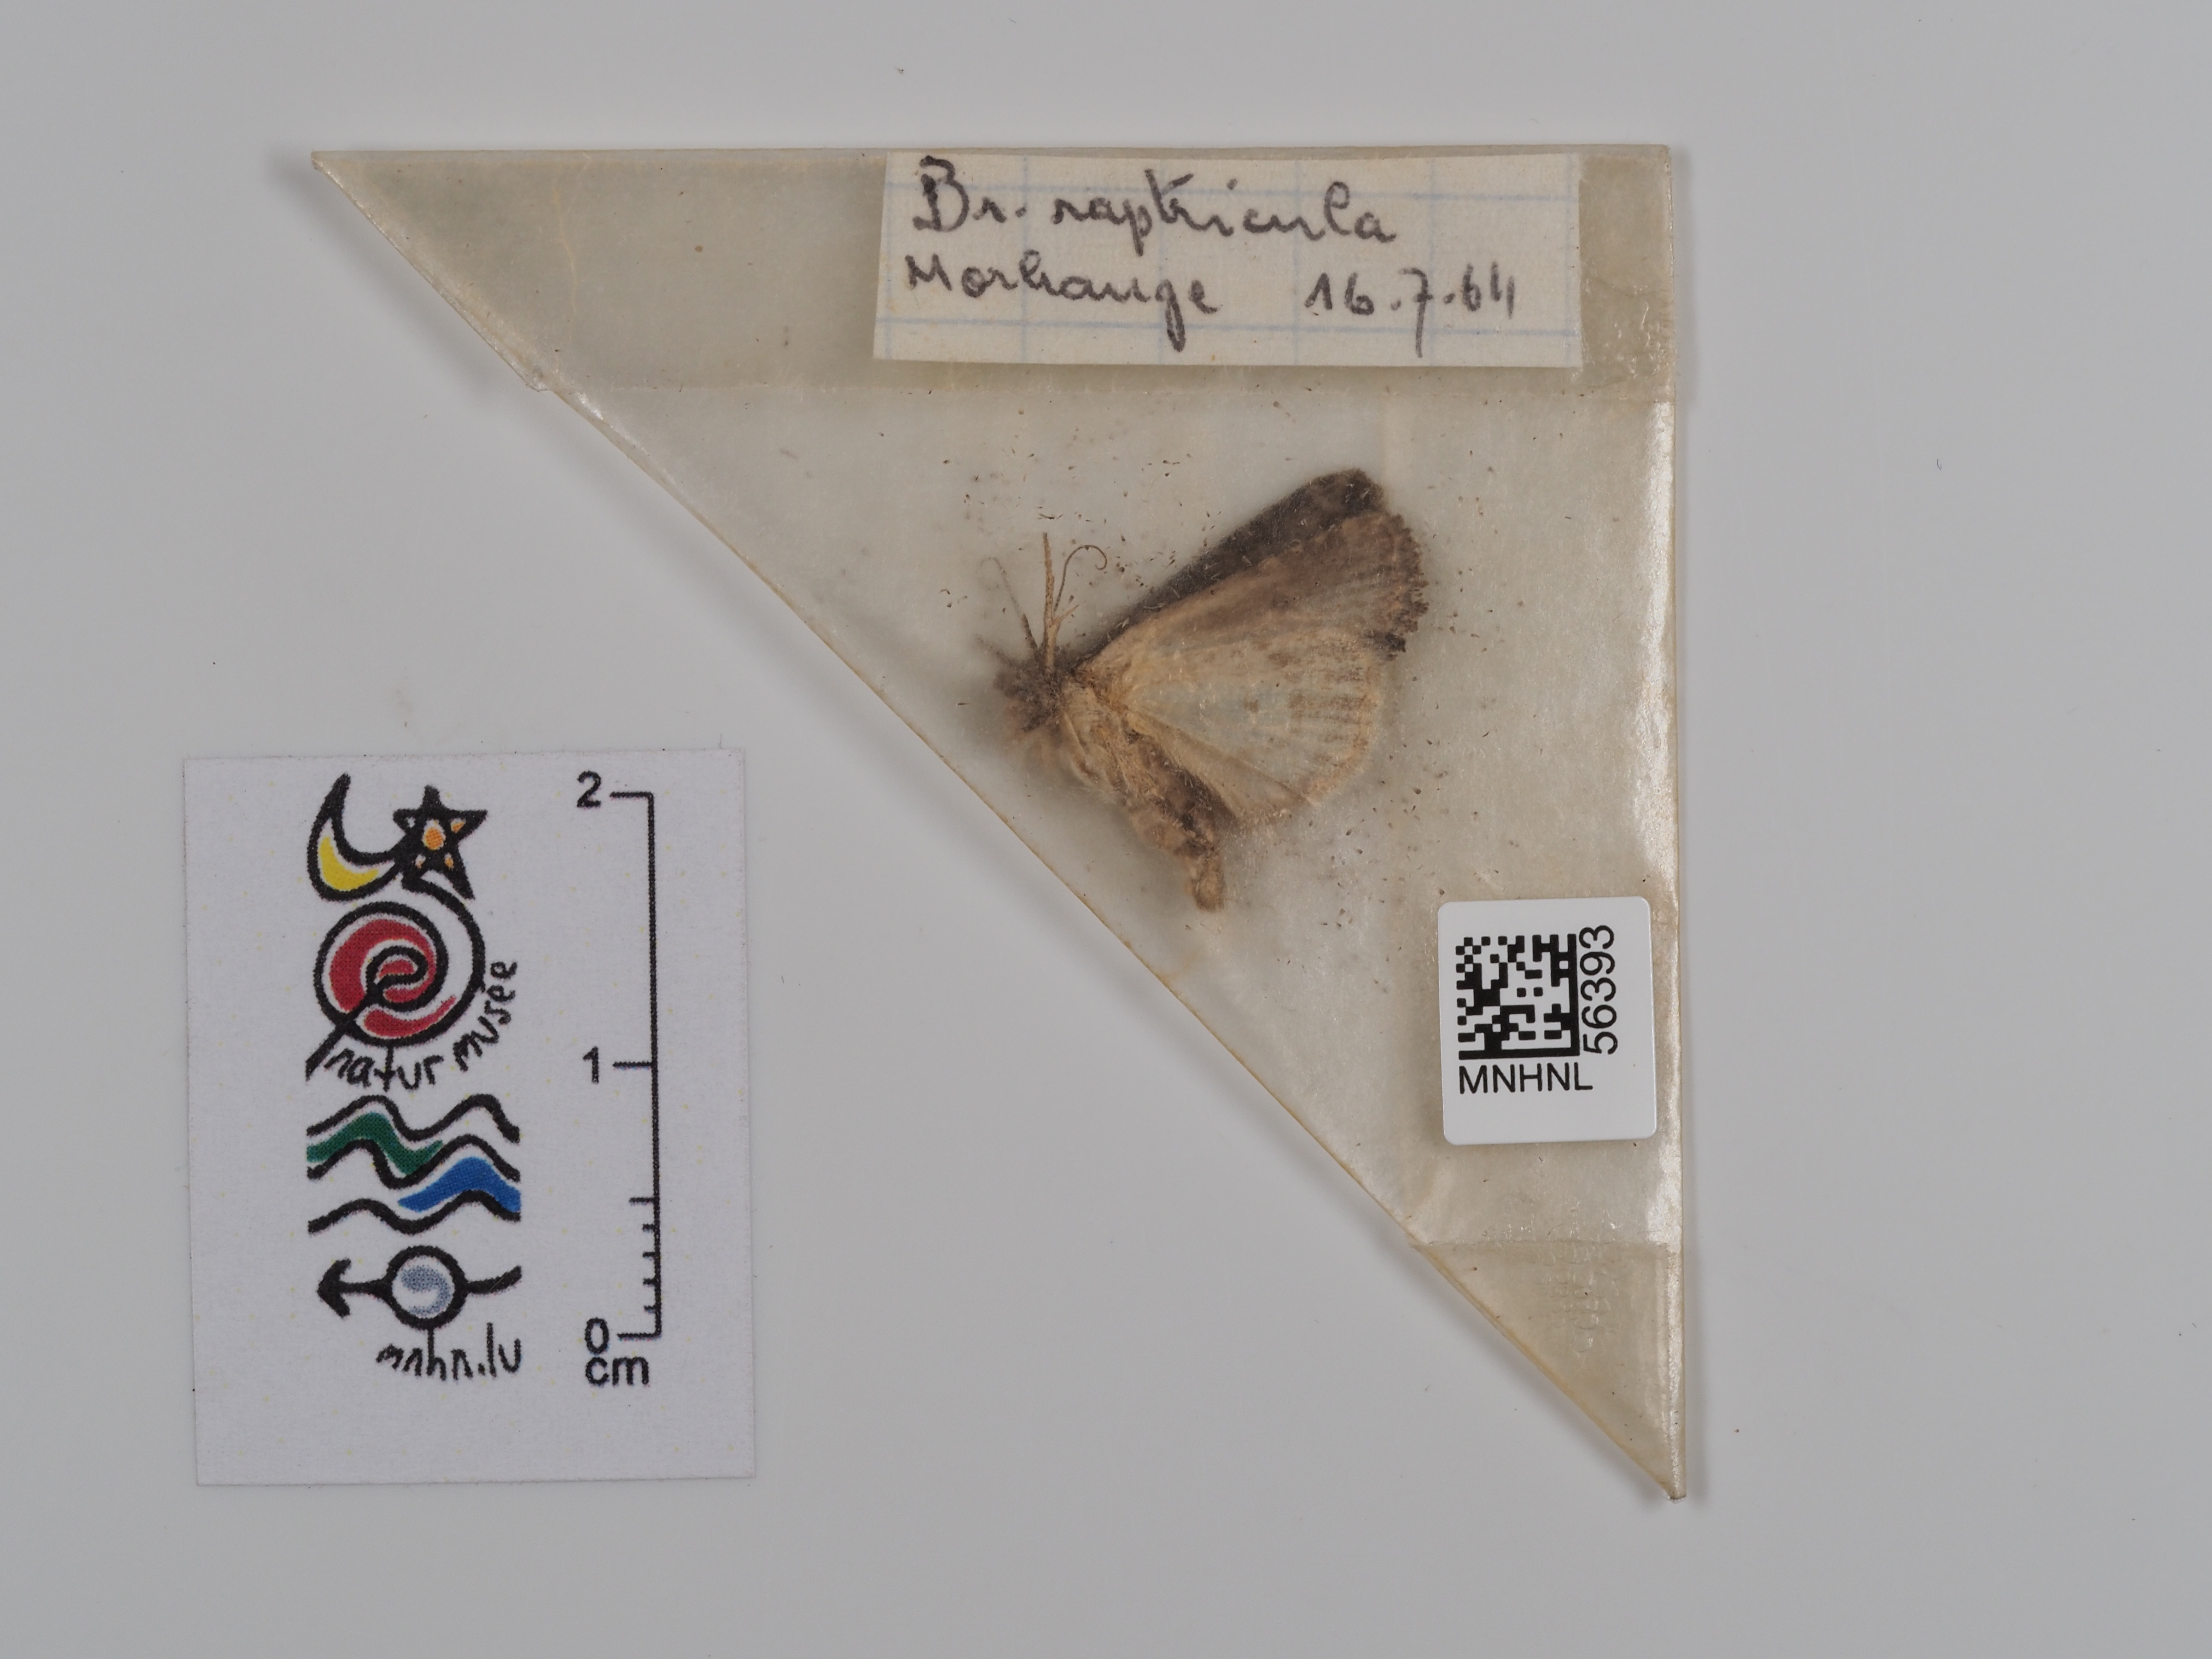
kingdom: Animalia
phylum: Arthropoda
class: Insecta
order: Lepidoptera
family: Noctuidae
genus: Bryophila
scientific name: Bryophila raptricula
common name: Marbled grey
